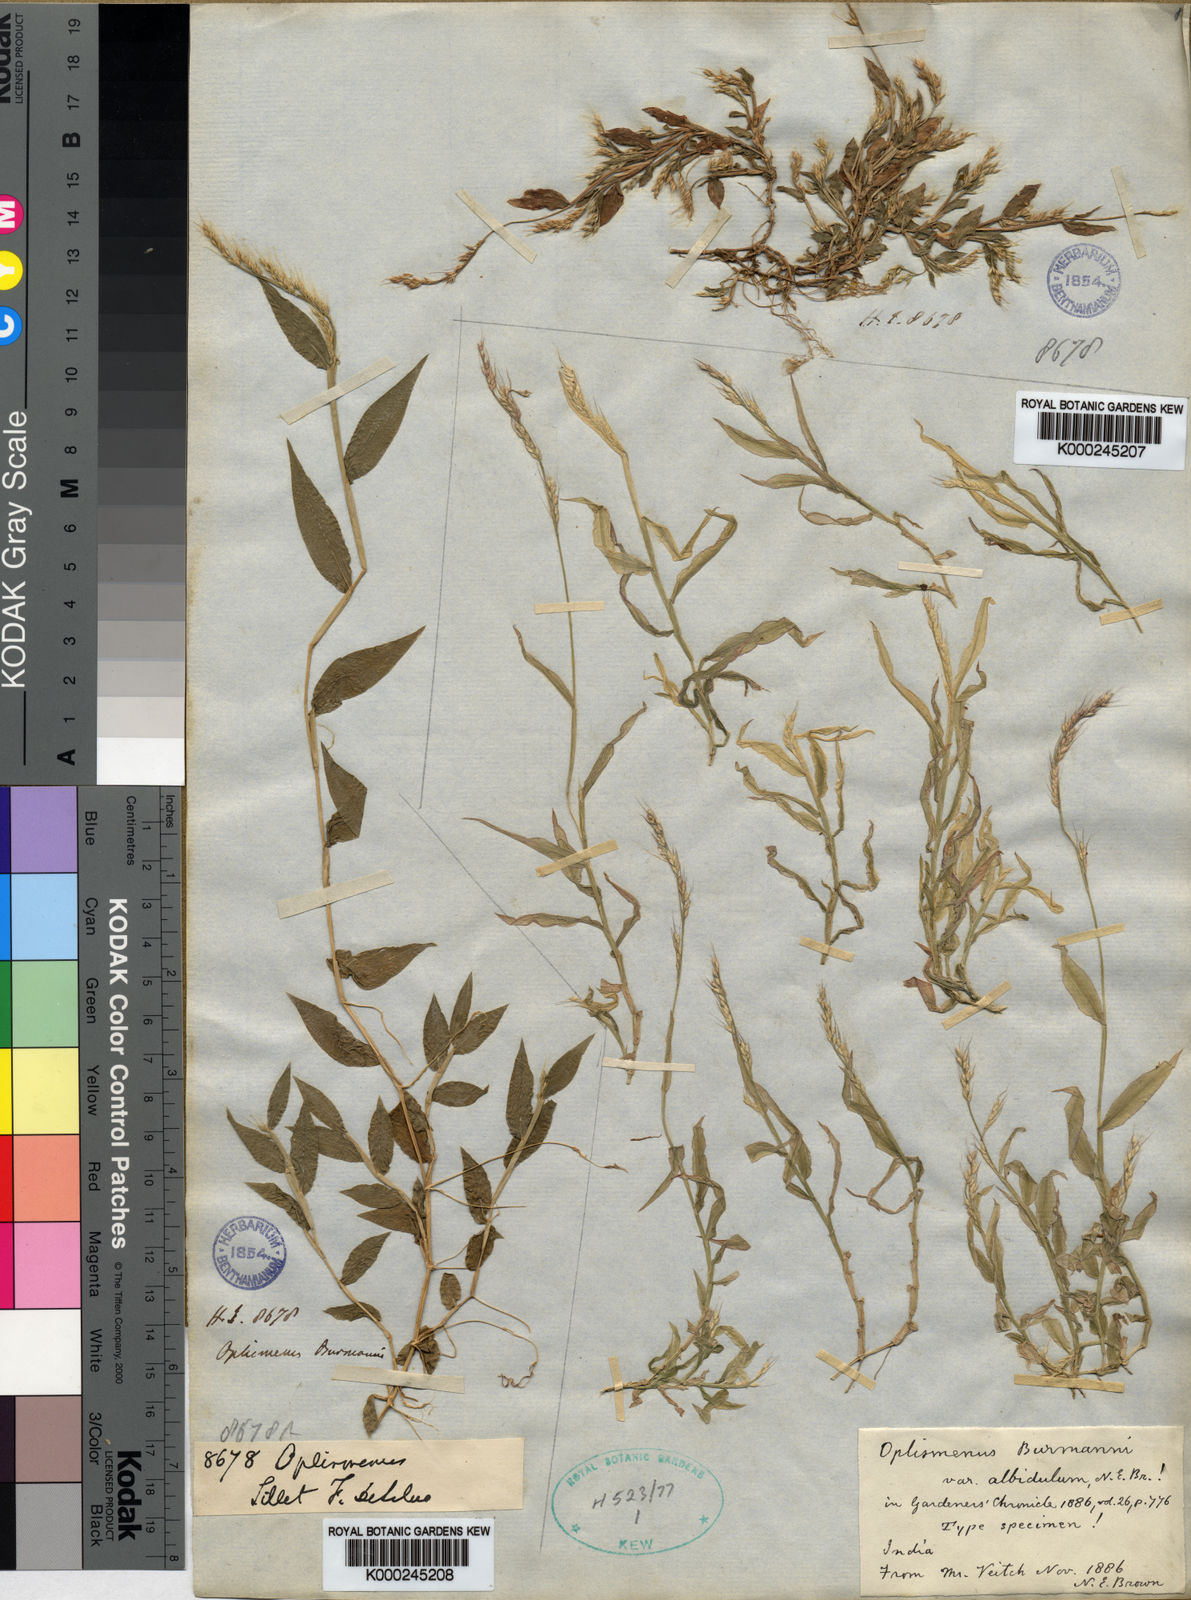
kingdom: Plantae
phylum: Tracheophyta
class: Liliopsida
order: Poales
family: Poaceae
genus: Oplismenus
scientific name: Oplismenus
